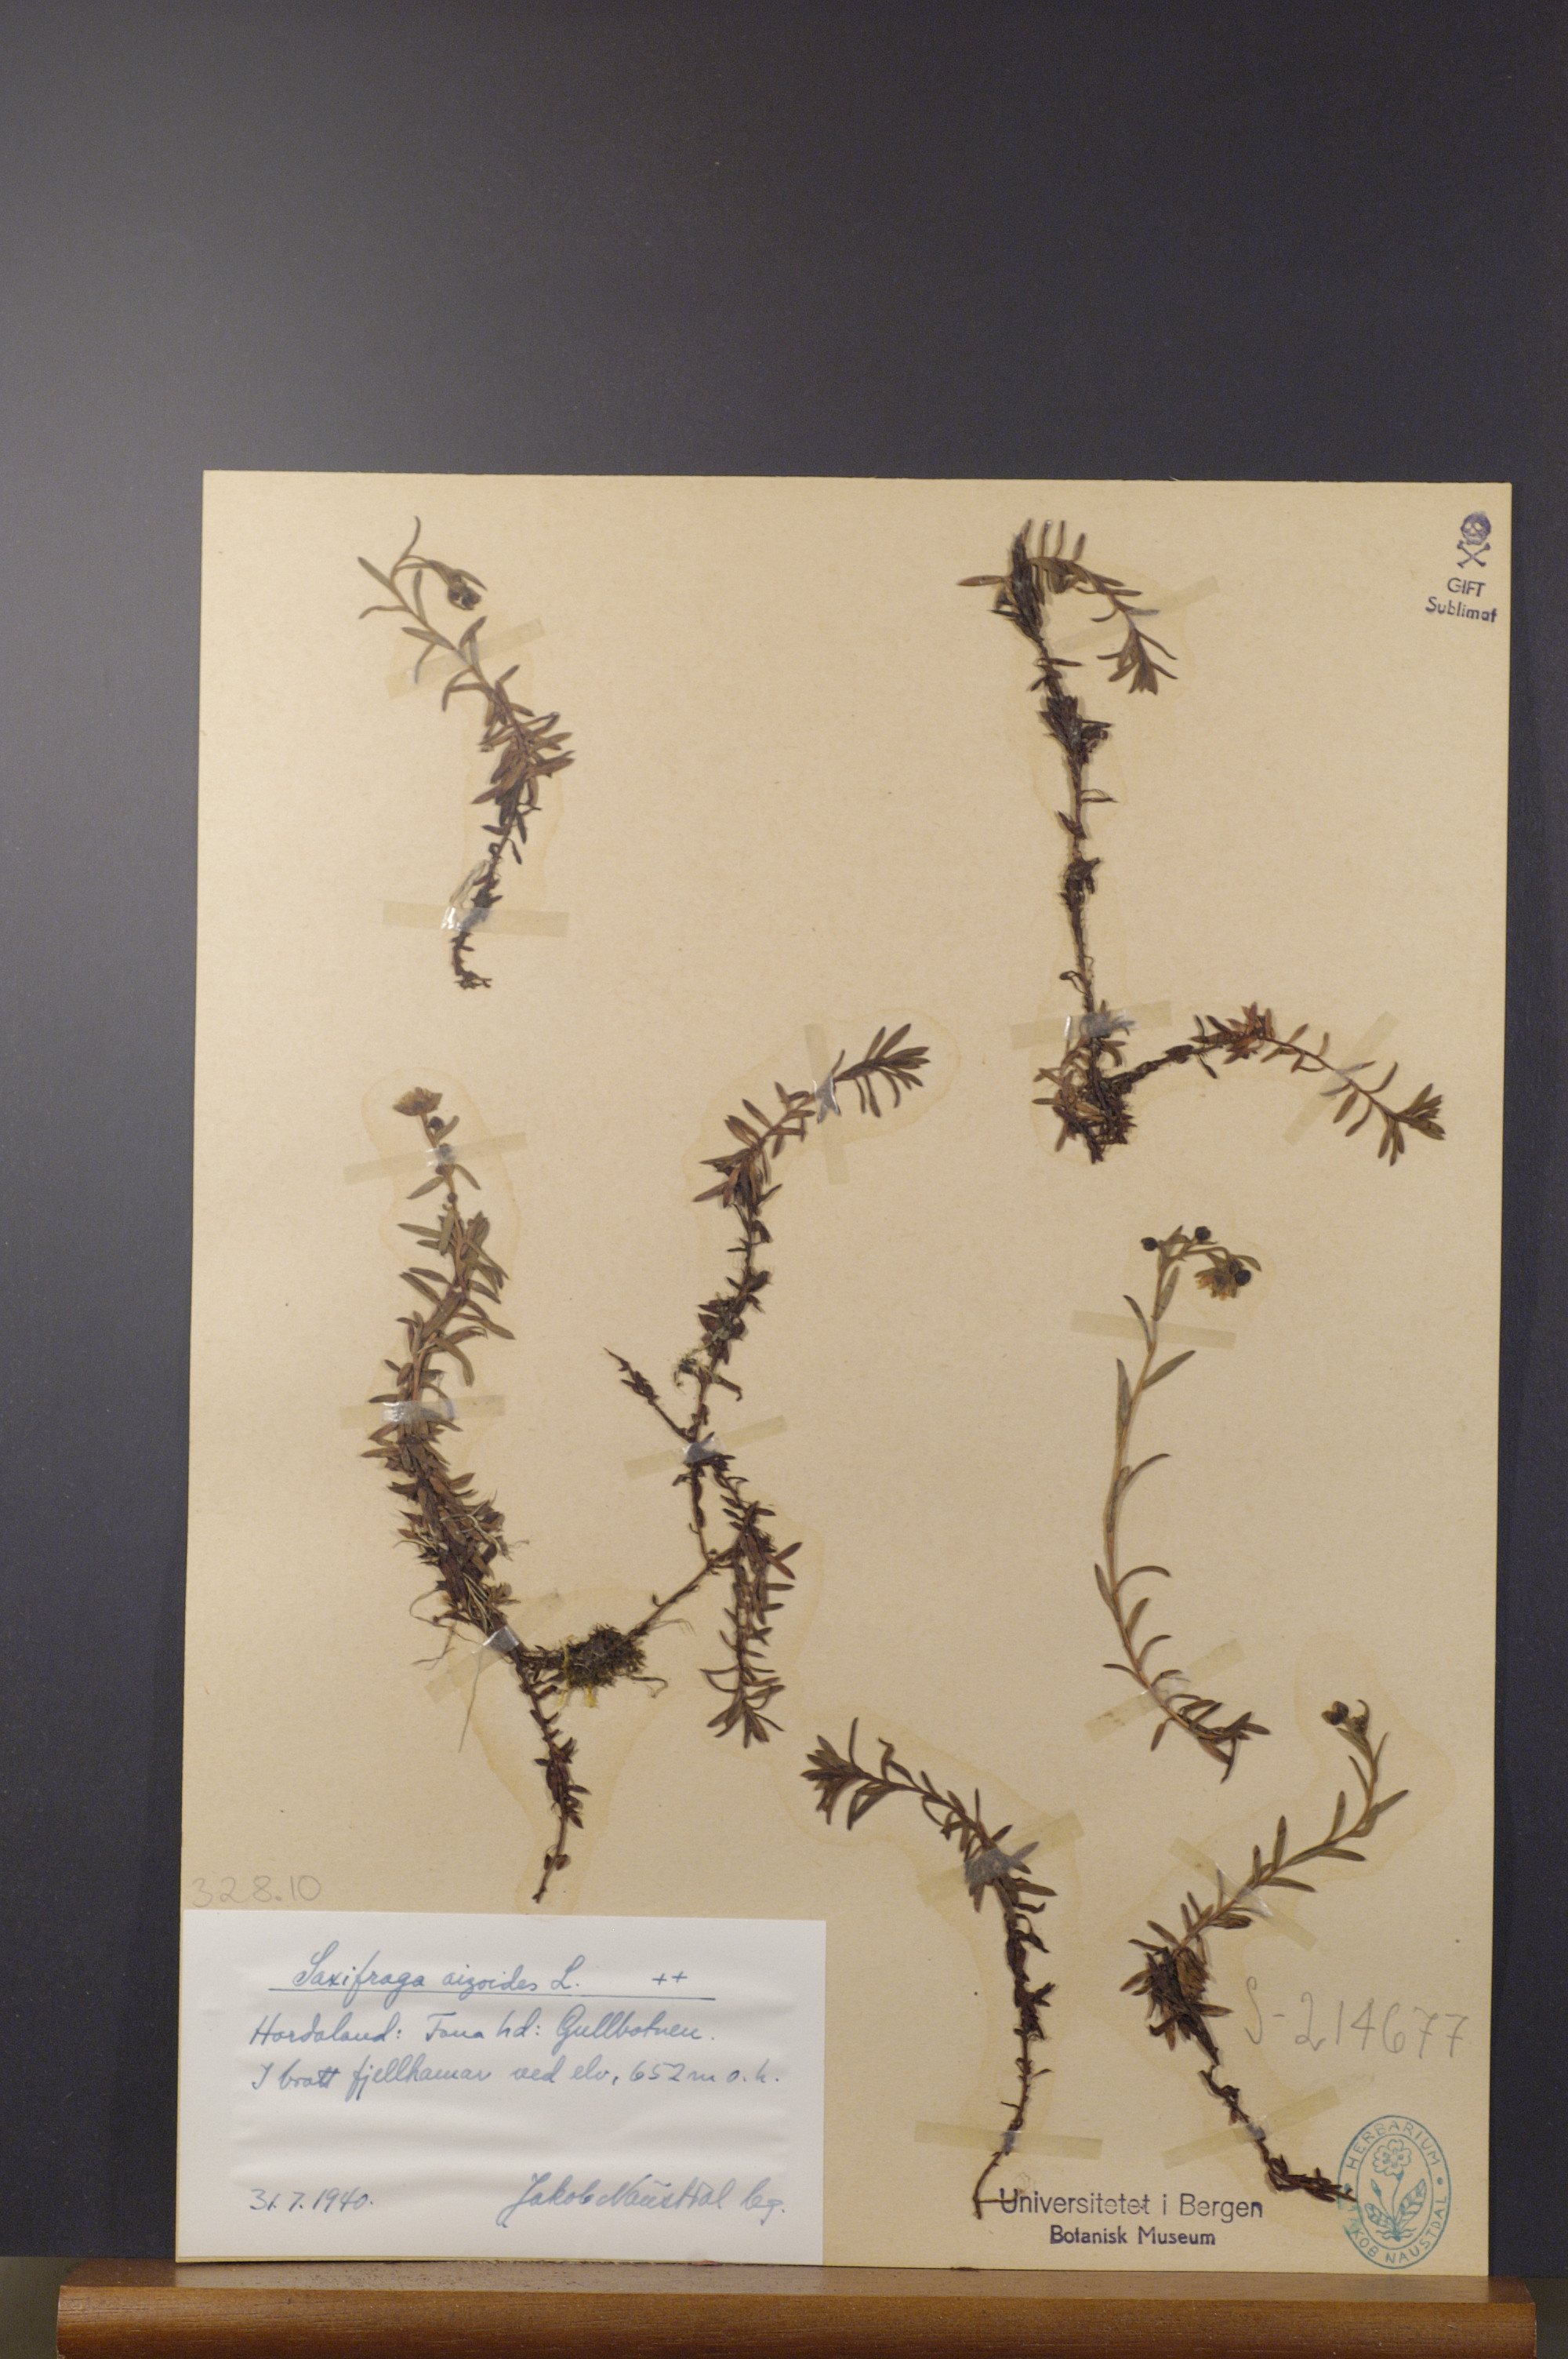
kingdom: Plantae
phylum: Tracheophyta
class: Magnoliopsida
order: Saxifragales
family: Saxifragaceae
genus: Saxifraga
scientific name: Saxifraga aizoides
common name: Yellow mountain saxifrage
